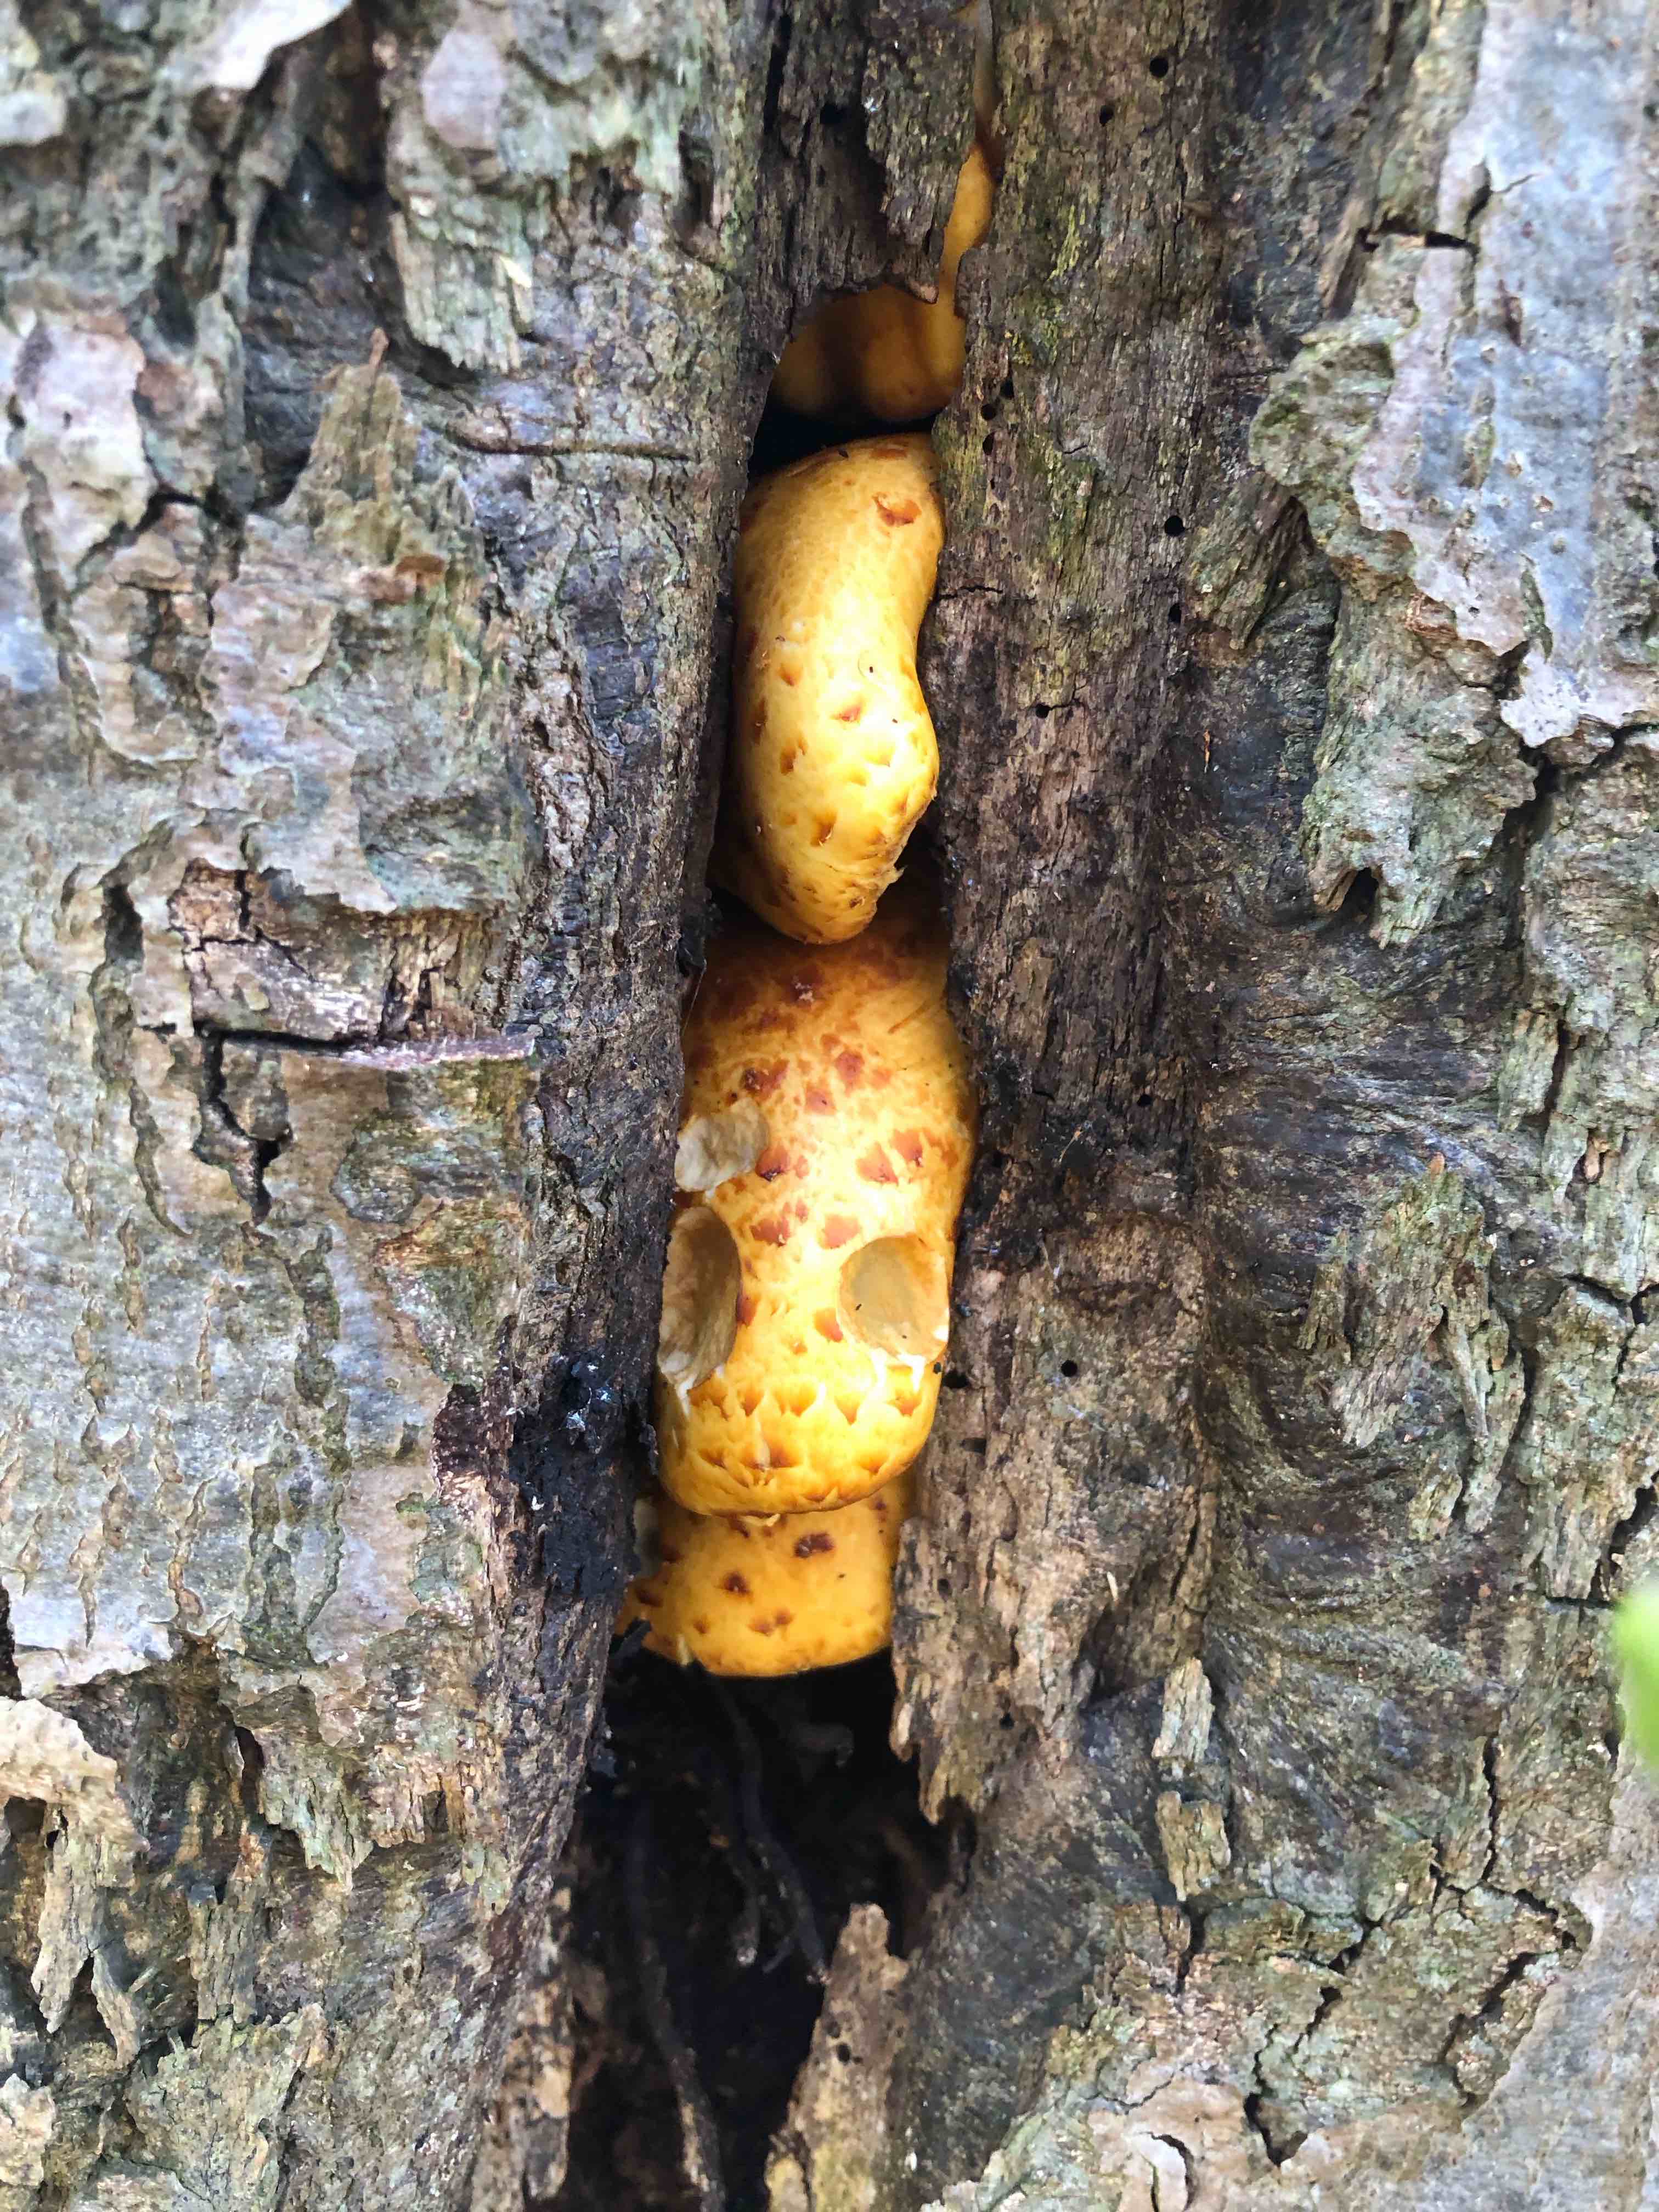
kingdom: Fungi
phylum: Basidiomycota
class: Agaricomycetes
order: Agaricales
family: Strophariaceae
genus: Pholiota
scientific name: Pholiota adiposa
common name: højtsiddende skælhat
